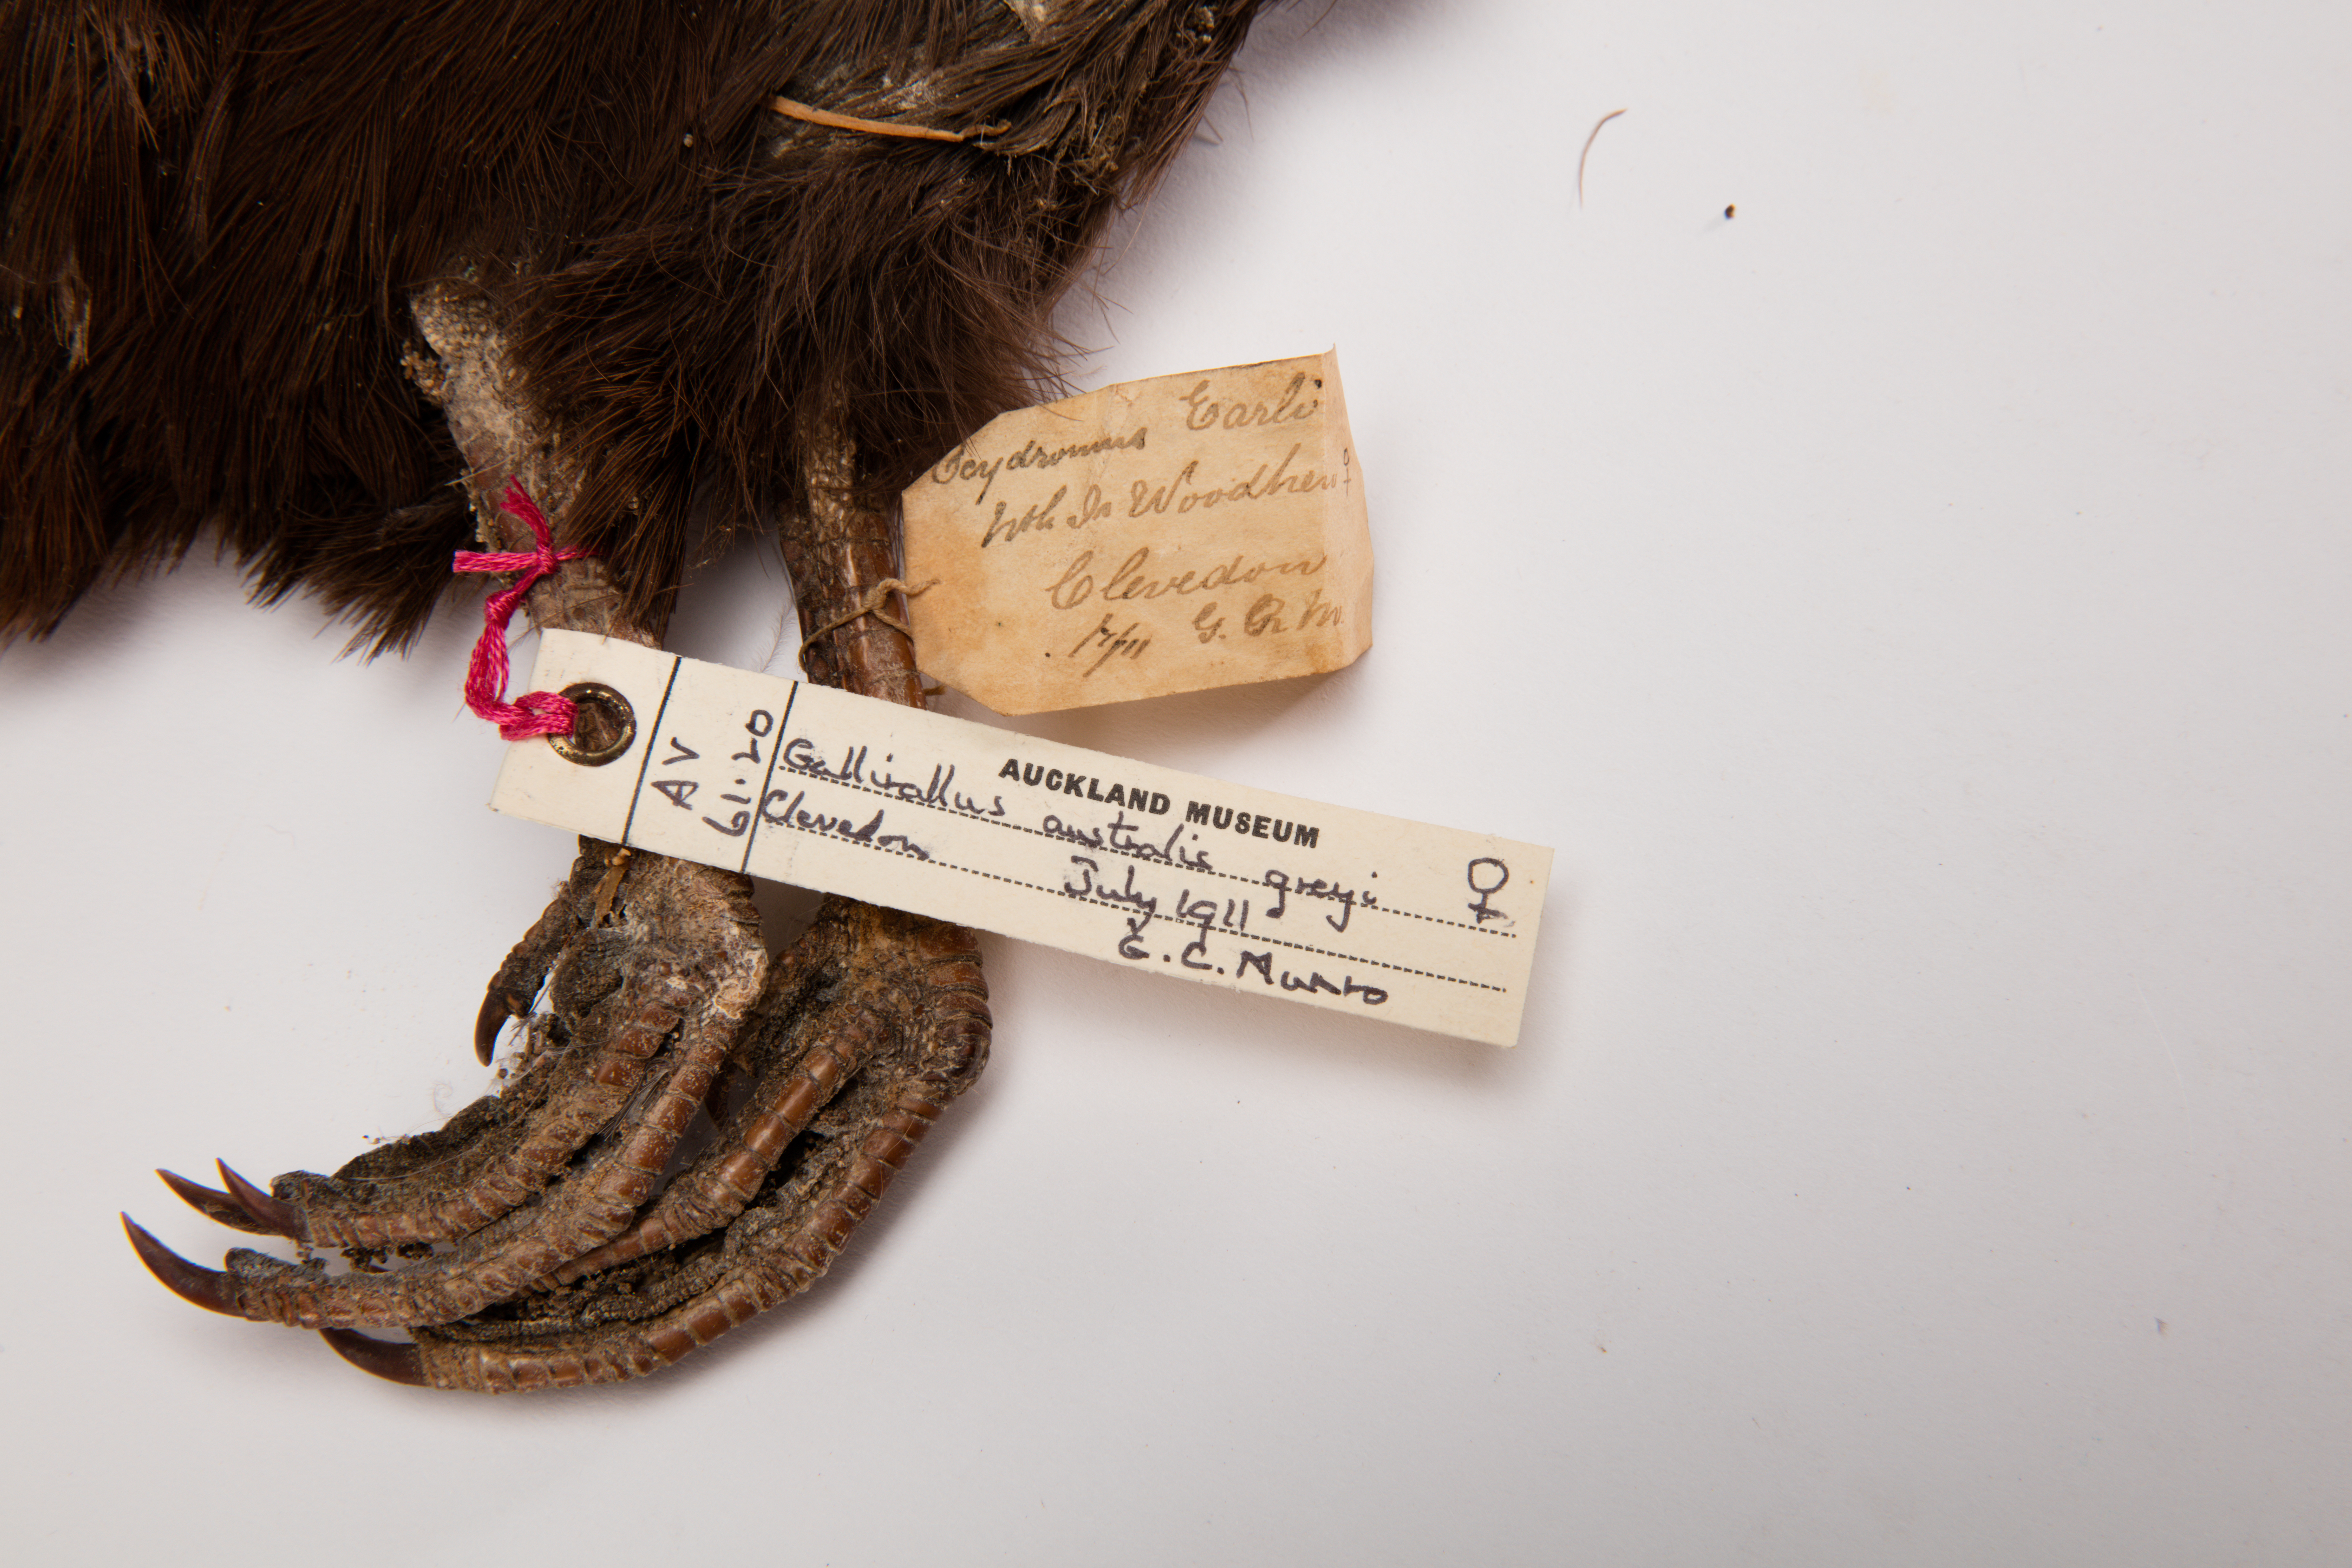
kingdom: Animalia
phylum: Chordata
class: Aves
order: Gruiformes
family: Rallidae
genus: Gallirallus
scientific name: Gallirallus australis
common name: Weka
